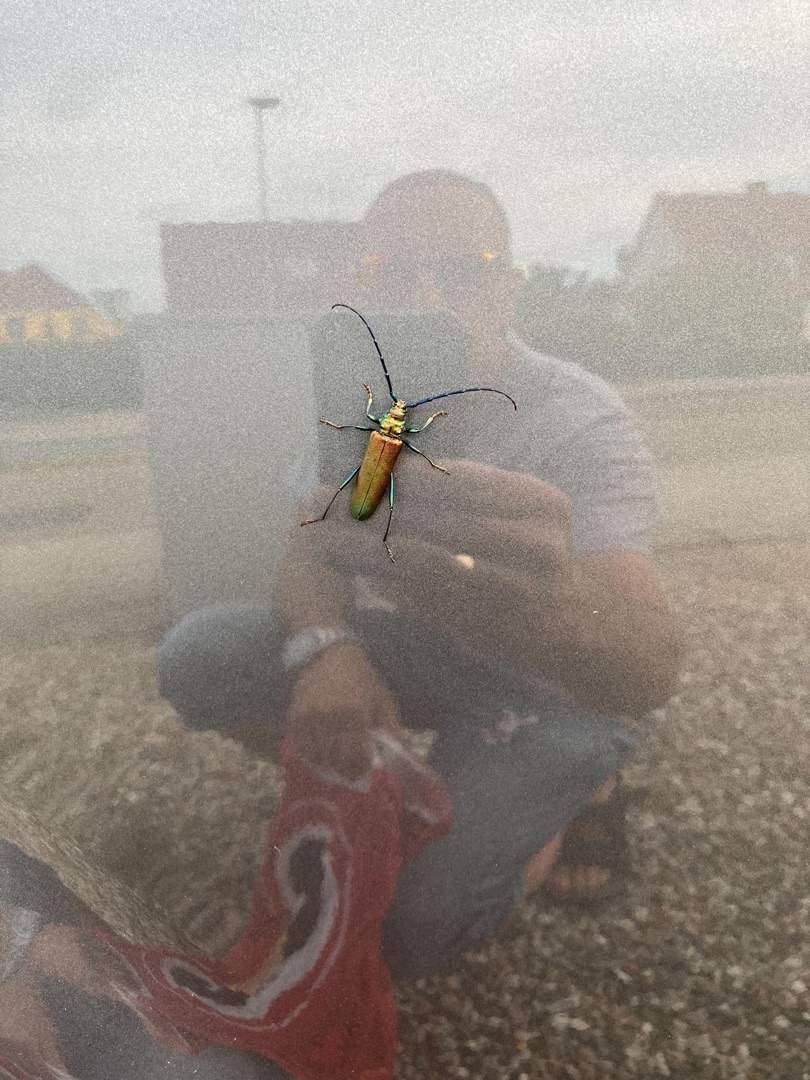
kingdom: Animalia
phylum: Arthropoda
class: Insecta
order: Coleoptera
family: Cerambycidae
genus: Aromia
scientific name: Aromia moschata
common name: Moskusbuk
